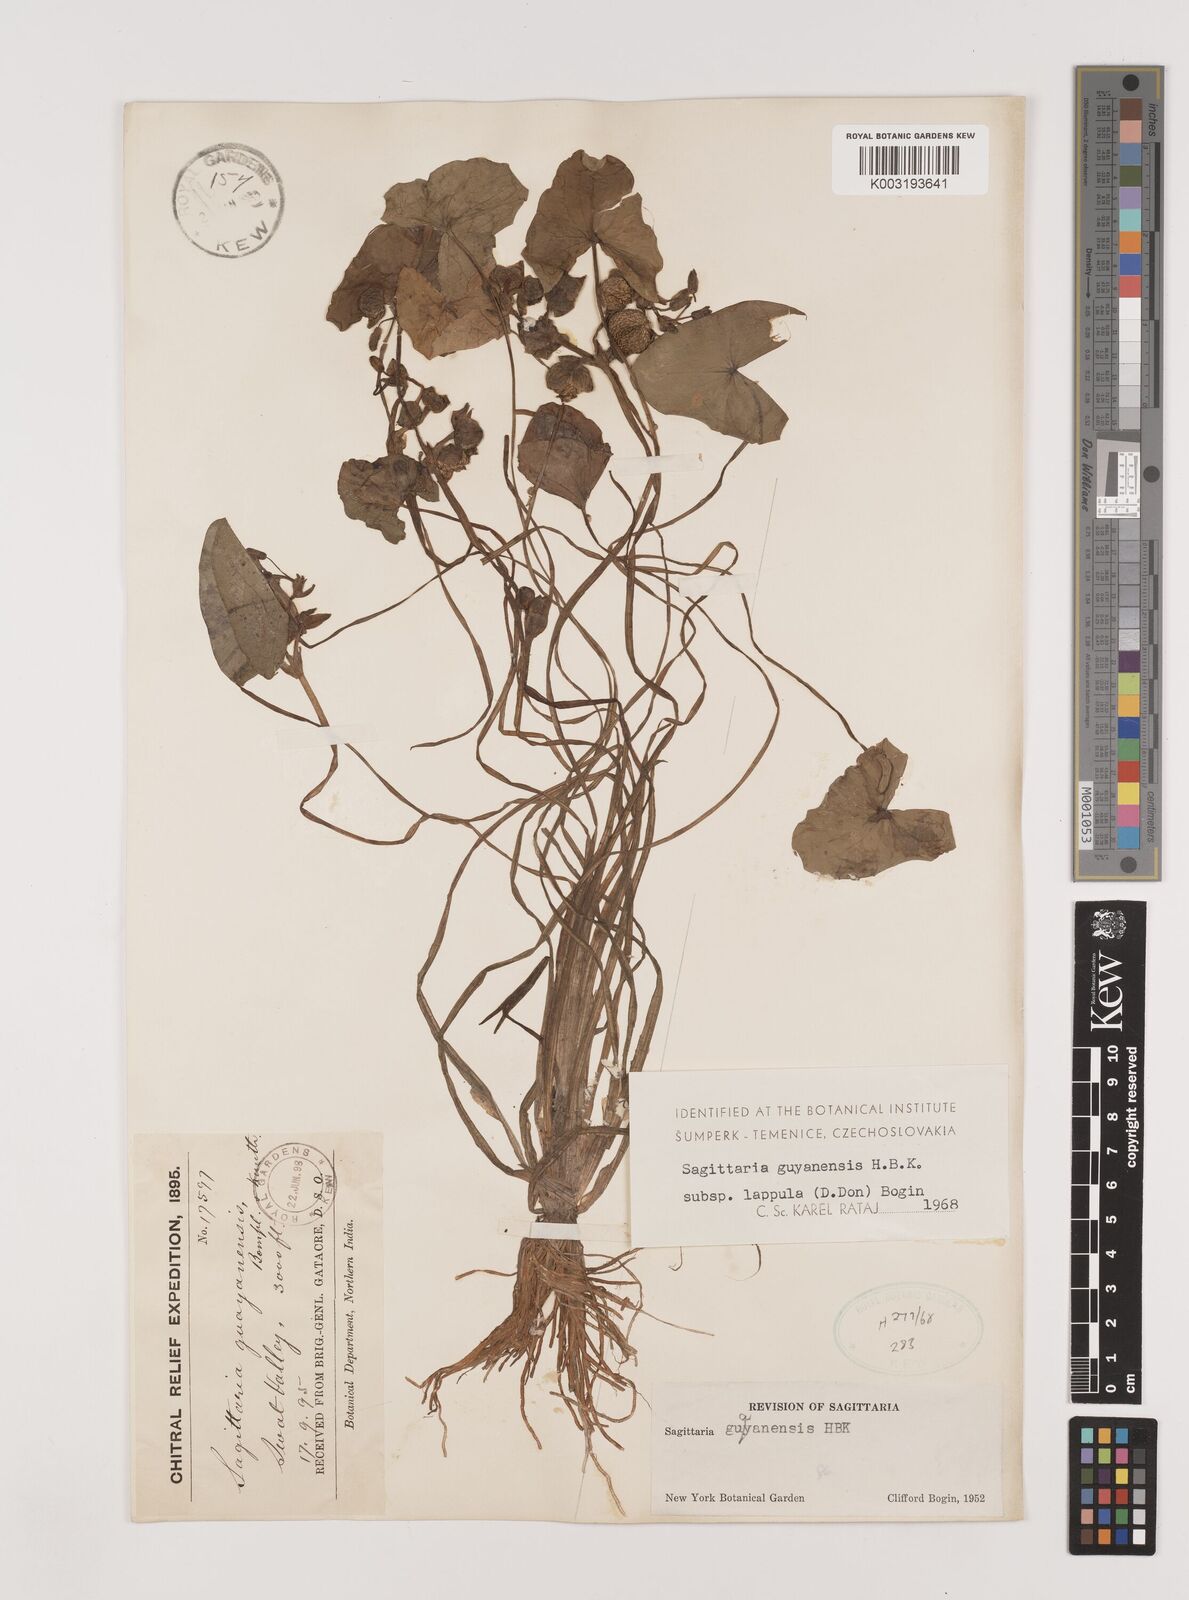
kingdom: Plantae
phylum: Tracheophyta
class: Liliopsida
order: Alismatales
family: Alismataceae
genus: Sagittaria
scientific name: Sagittaria guayanensis
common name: Guyanese arrowhead
